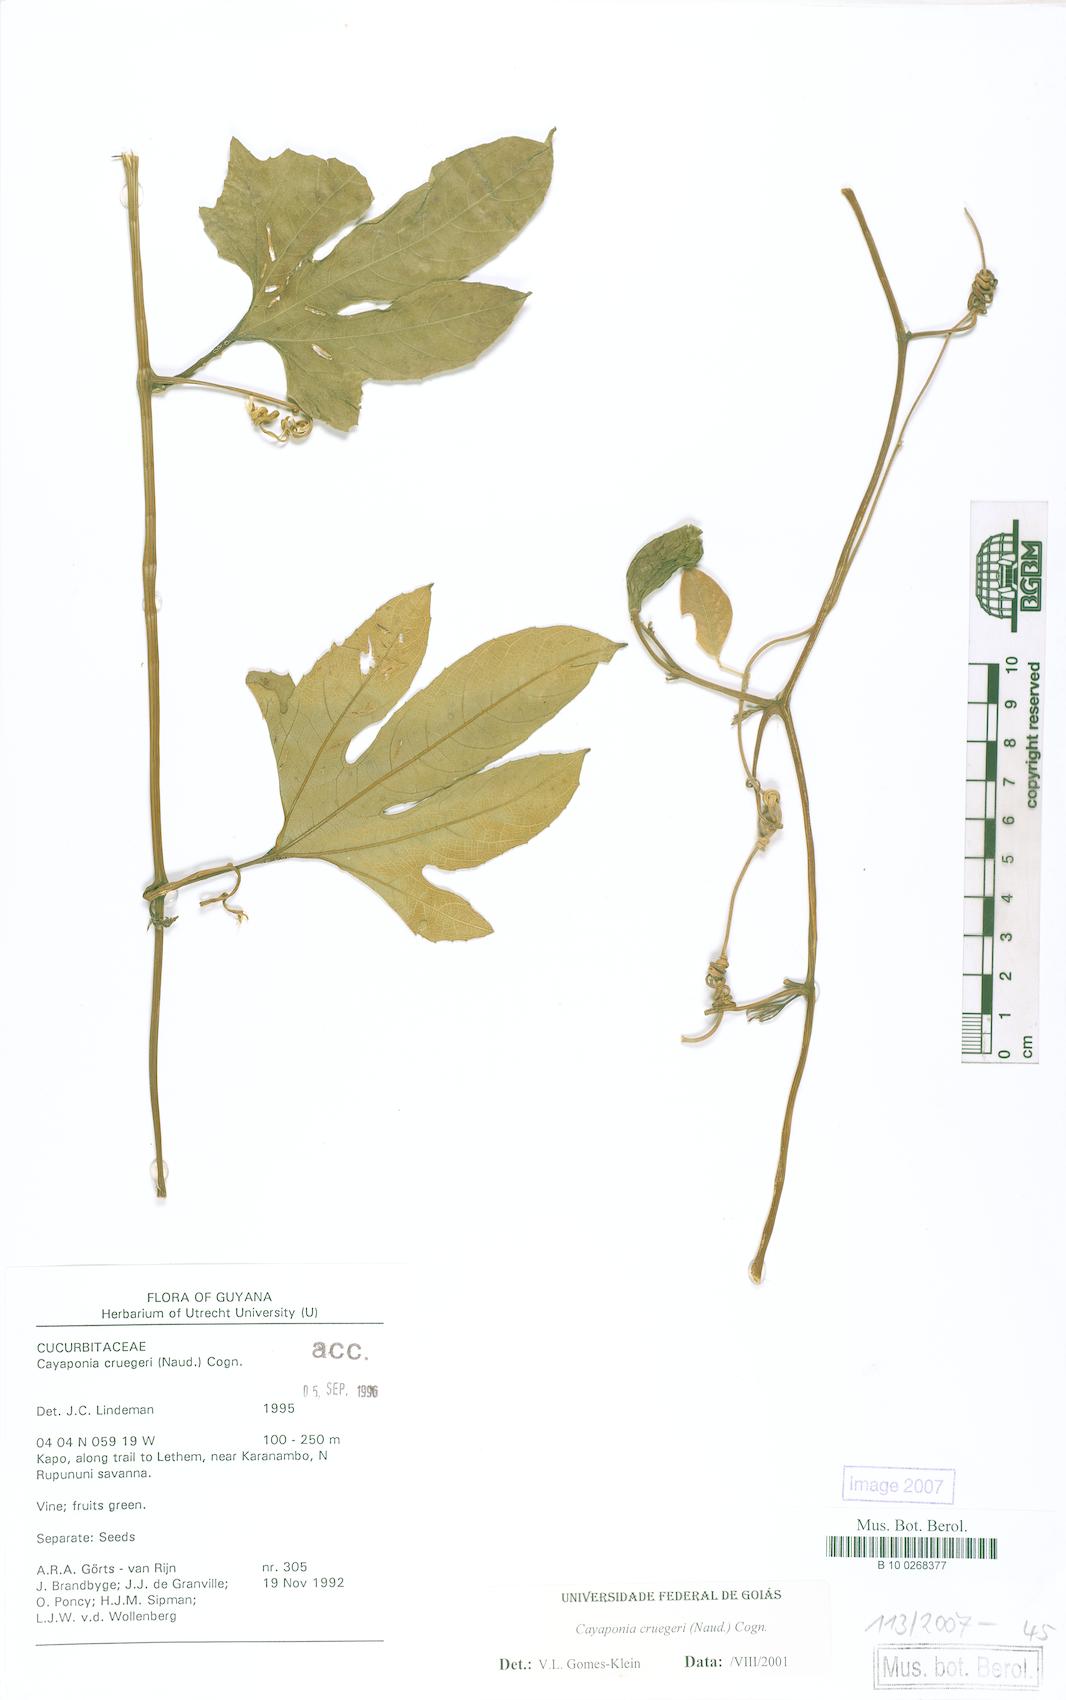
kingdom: Plantae
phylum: Tracheophyta
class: Magnoliopsida
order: Cucurbitales
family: Cucurbitaceae
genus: Cayaponia
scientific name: Cayaponia cruegeri
